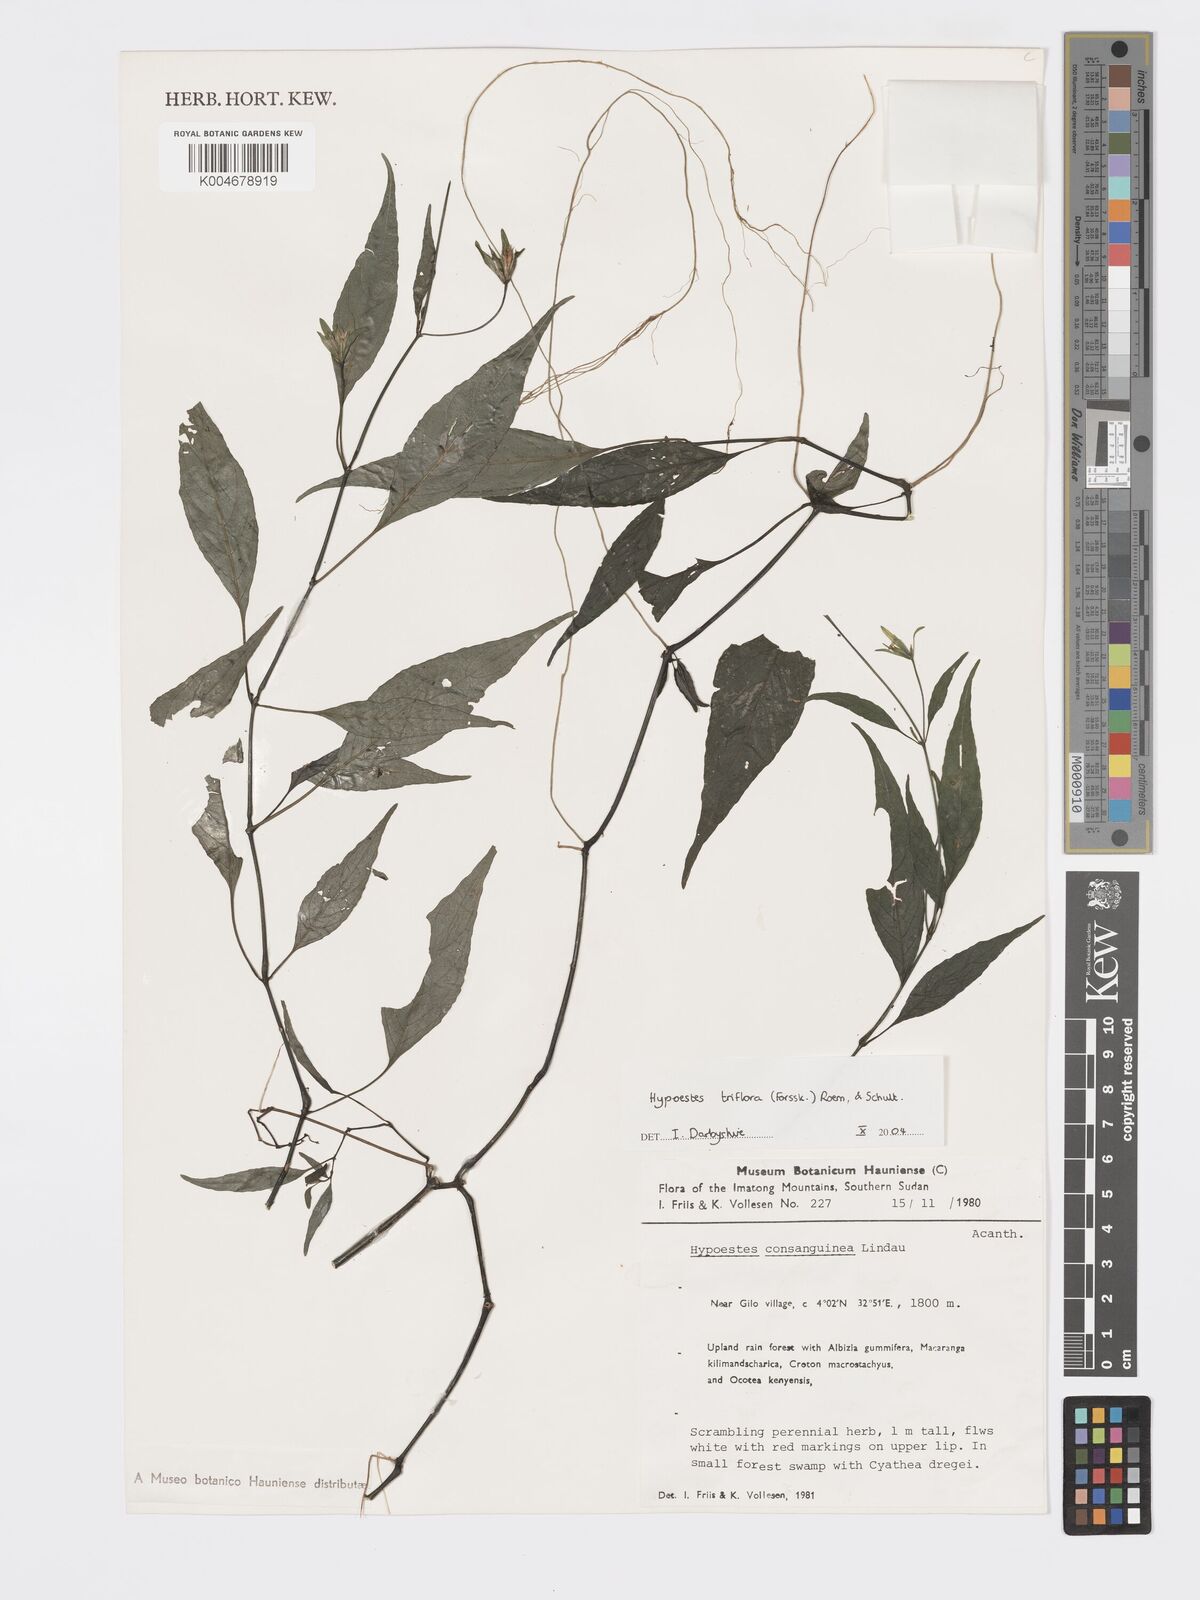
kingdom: Plantae
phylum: Tracheophyta
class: Magnoliopsida
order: Lamiales
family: Acanthaceae
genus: Hypoestes
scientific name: Hypoestes triflora
